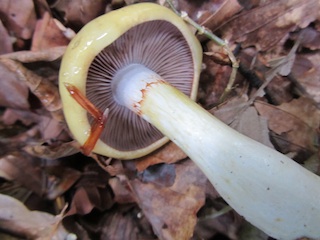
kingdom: Fungi
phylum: Basidiomycota
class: Agaricomycetes
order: Agaricales
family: Cortinariaceae
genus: Cortinarius
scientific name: Cortinarius delibutus
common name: gul slørhat
